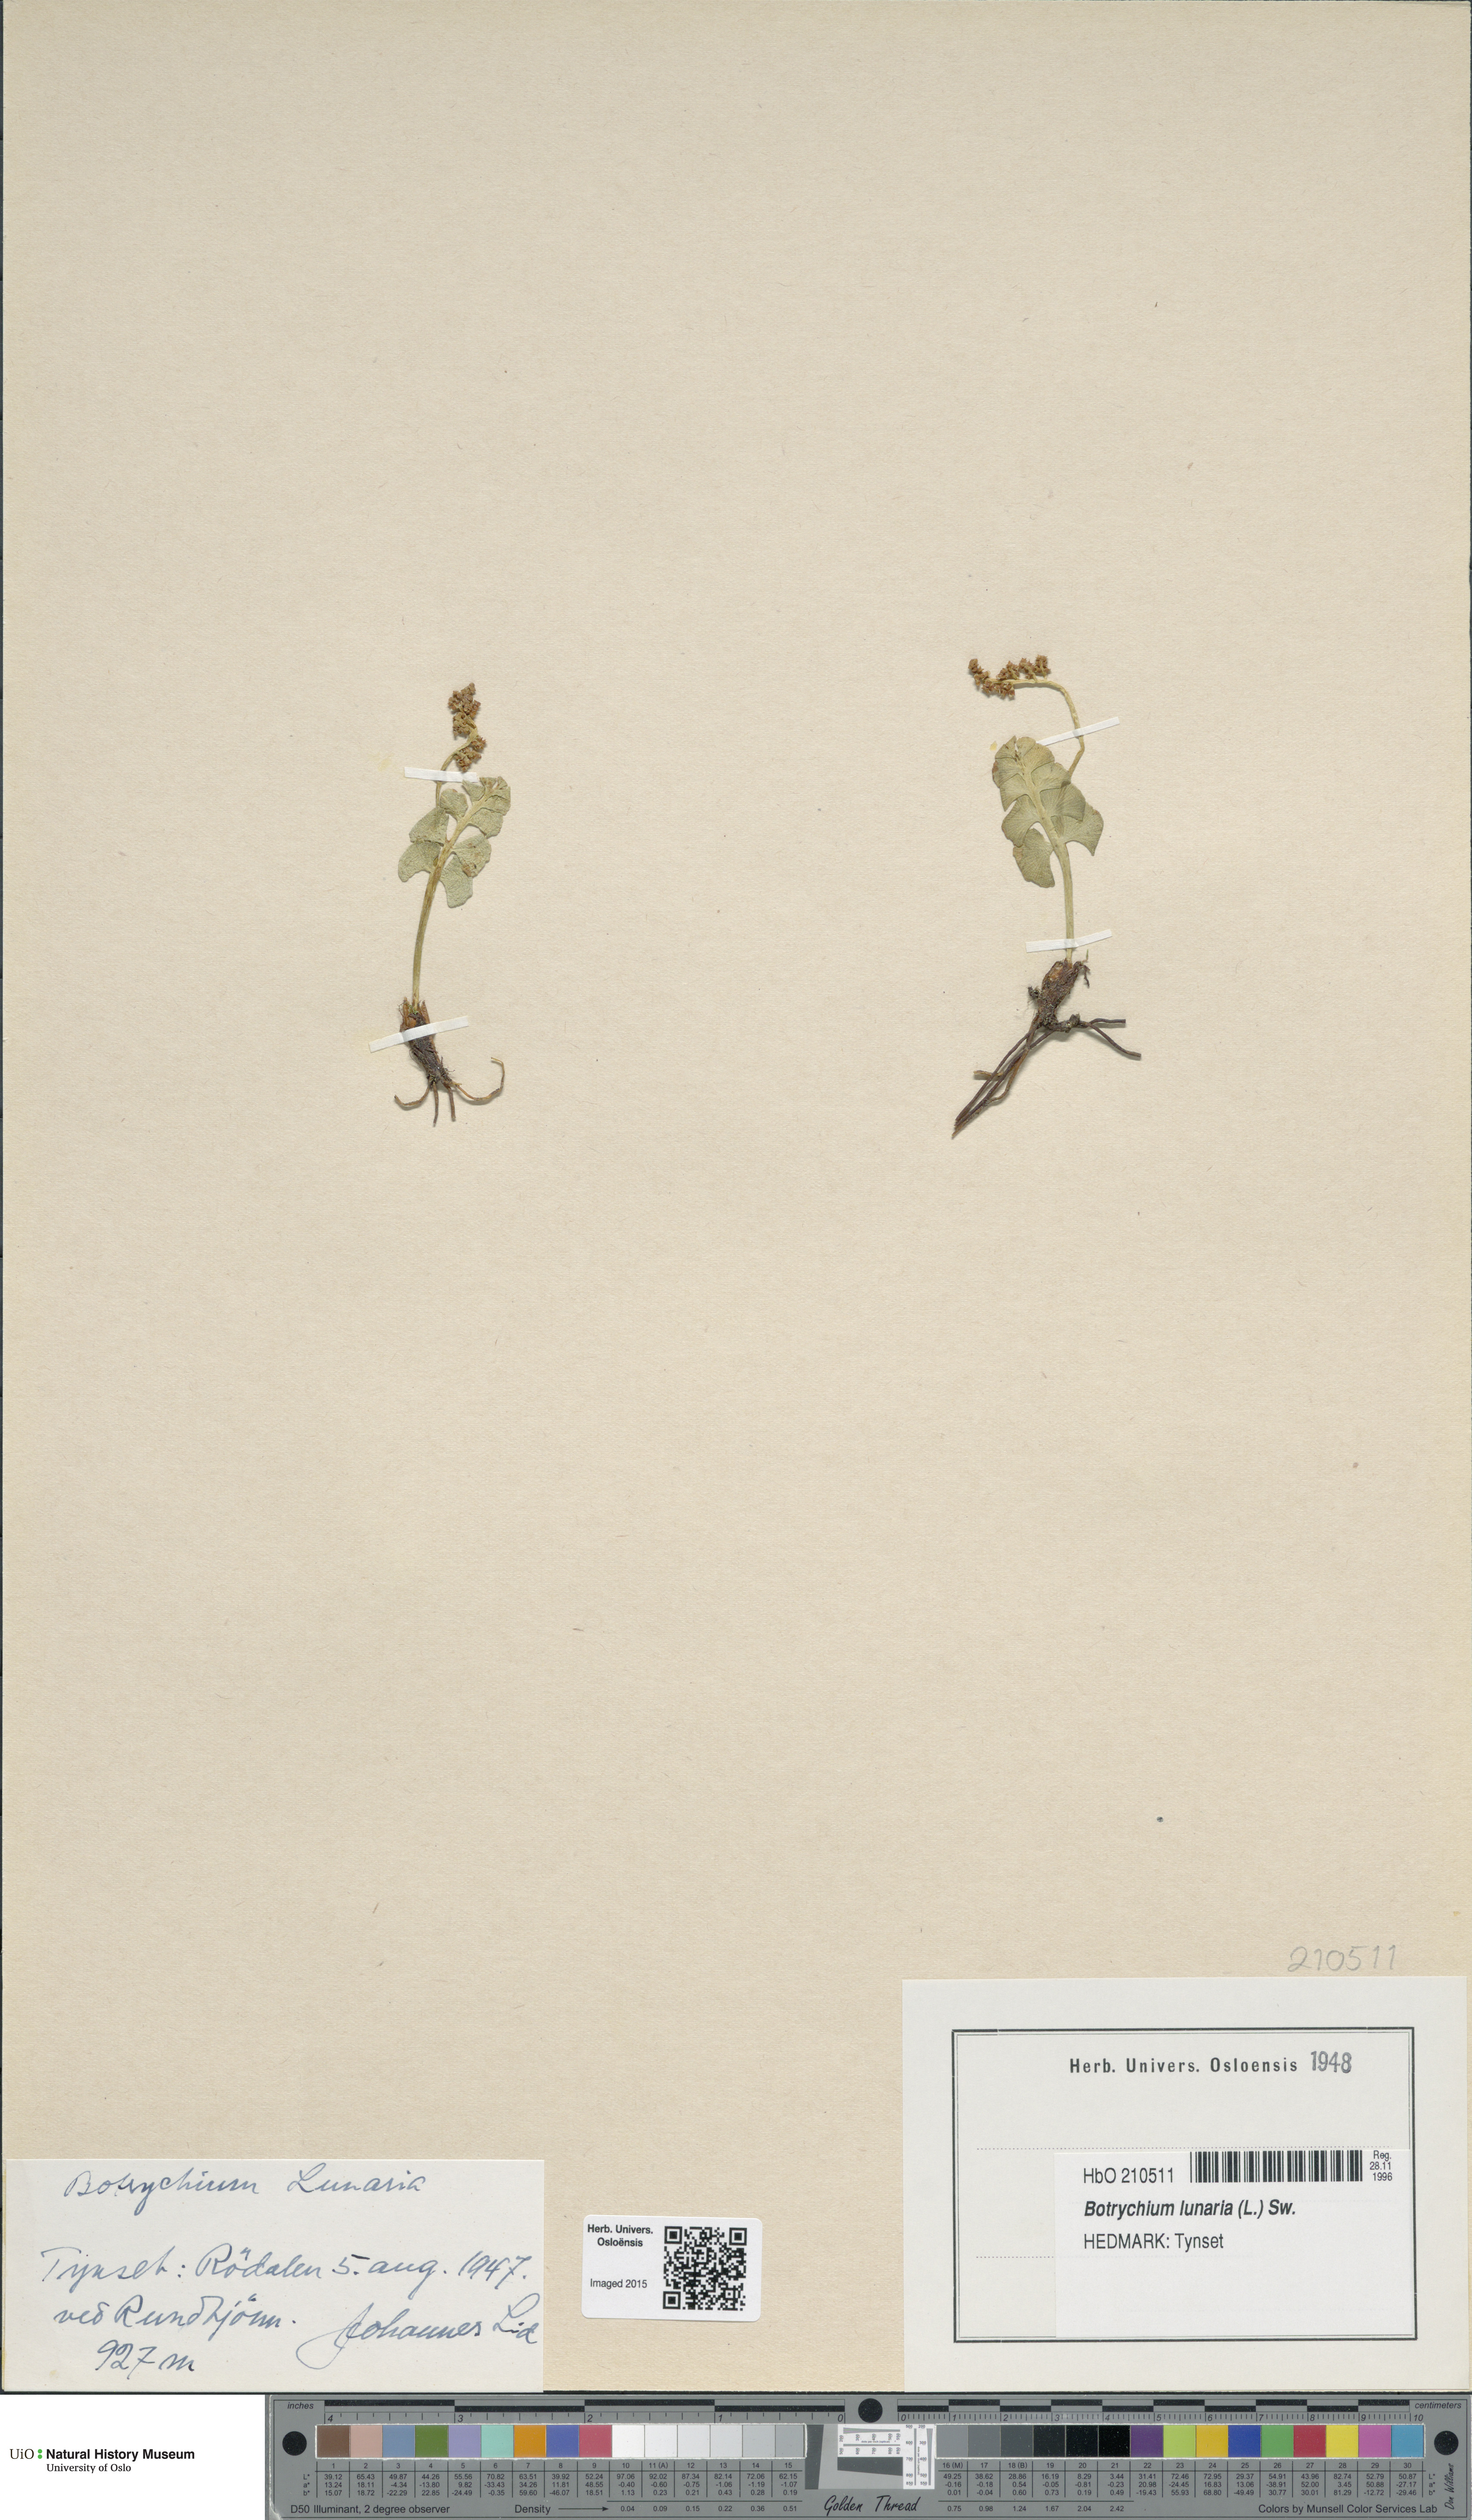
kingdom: Plantae
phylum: Tracheophyta
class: Polypodiopsida
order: Ophioglossales
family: Ophioglossaceae
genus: Botrychium
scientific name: Botrychium lunaria
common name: Moonwort
